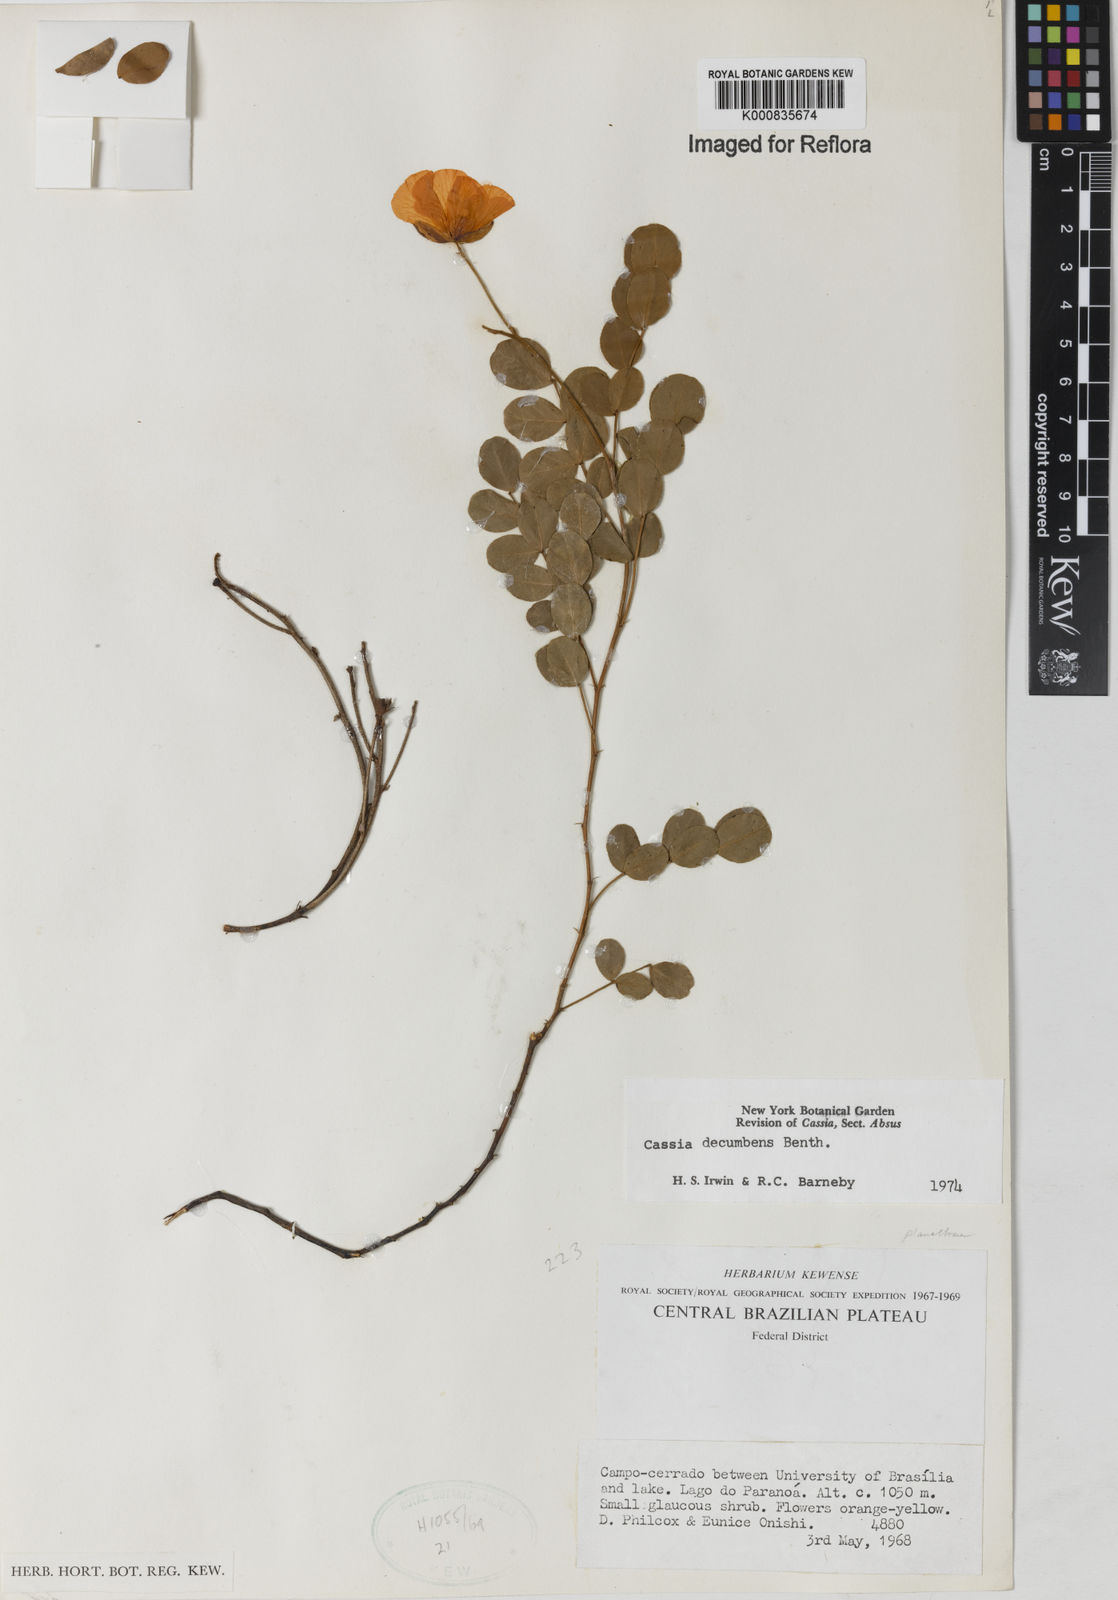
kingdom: Plantae
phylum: Tracheophyta
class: Magnoliopsida
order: Fabales
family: Fabaceae
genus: Chamaecrista
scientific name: Chamaecrista decumbens
